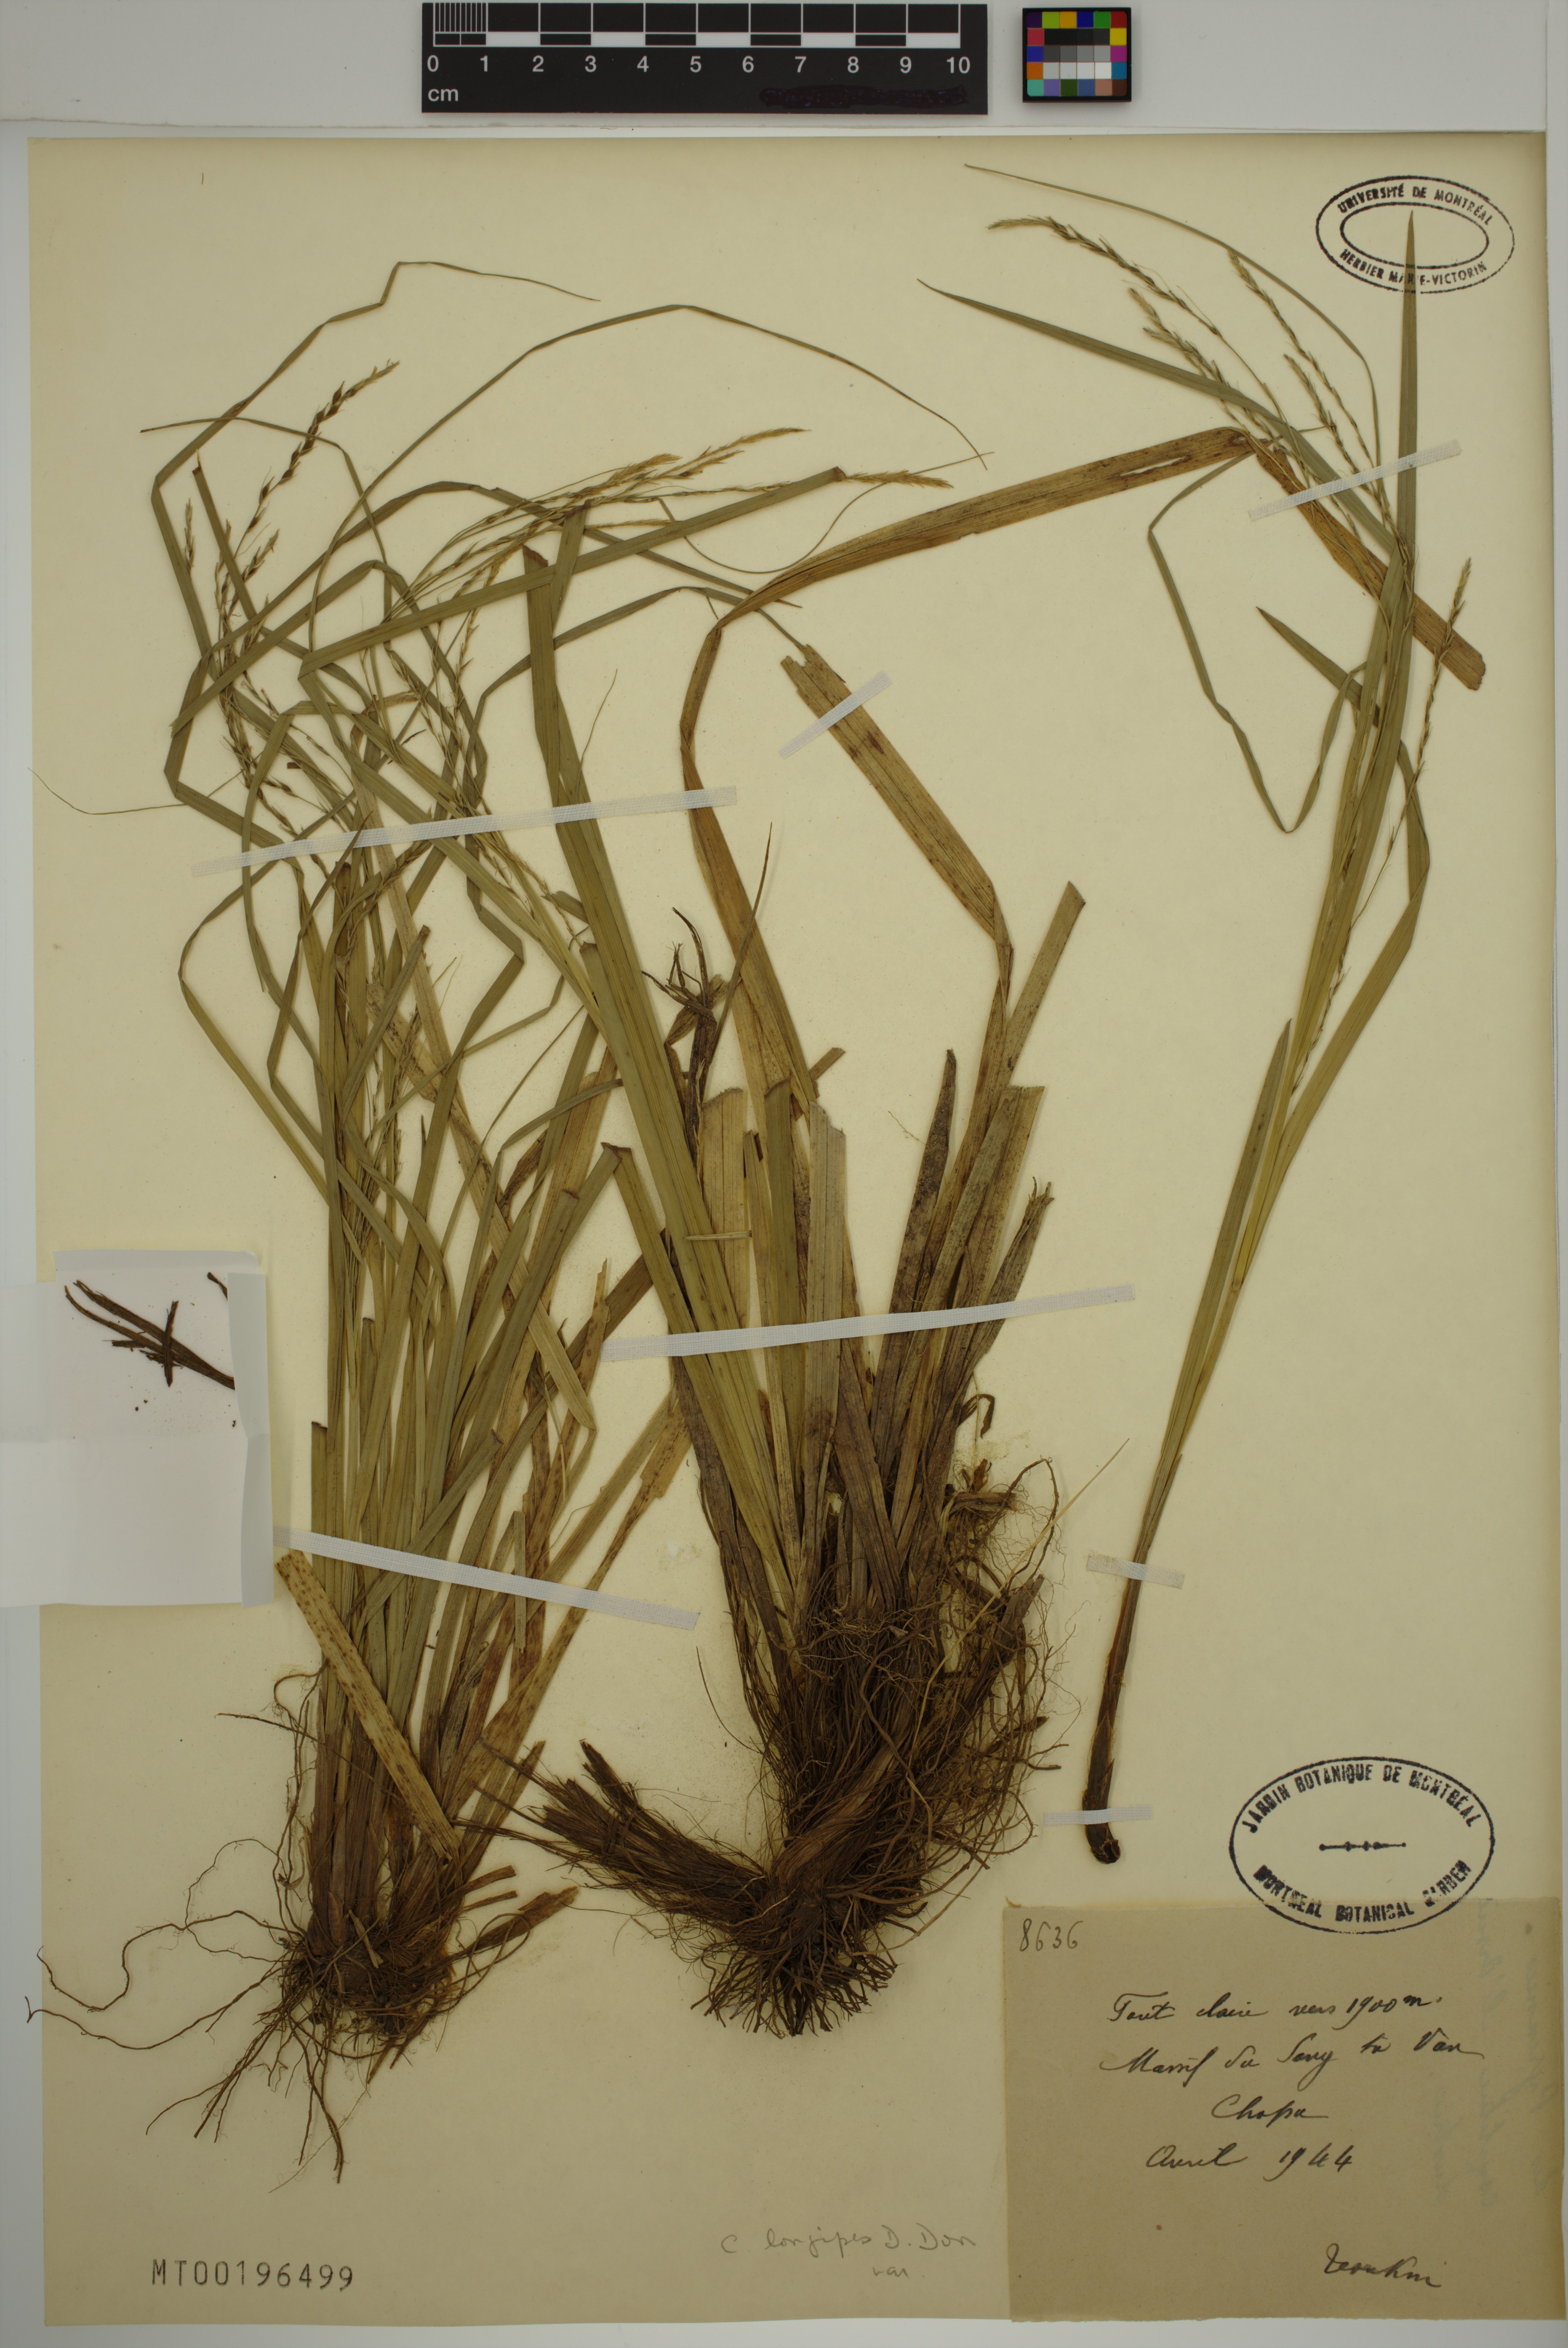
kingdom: Plantae
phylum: Tracheophyta
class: Liliopsida
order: Poales
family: Cyperaceae
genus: Carex
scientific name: Carex longipes
